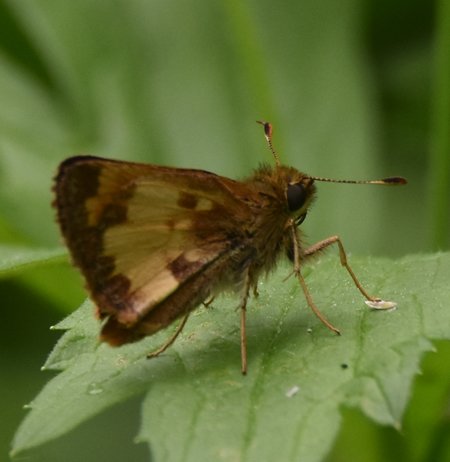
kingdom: Animalia
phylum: Arthropoda
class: Insecta
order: Lepidoptera
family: Hesperiidae
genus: Lon
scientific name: Lon hobomok
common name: Hobomok Skipper
